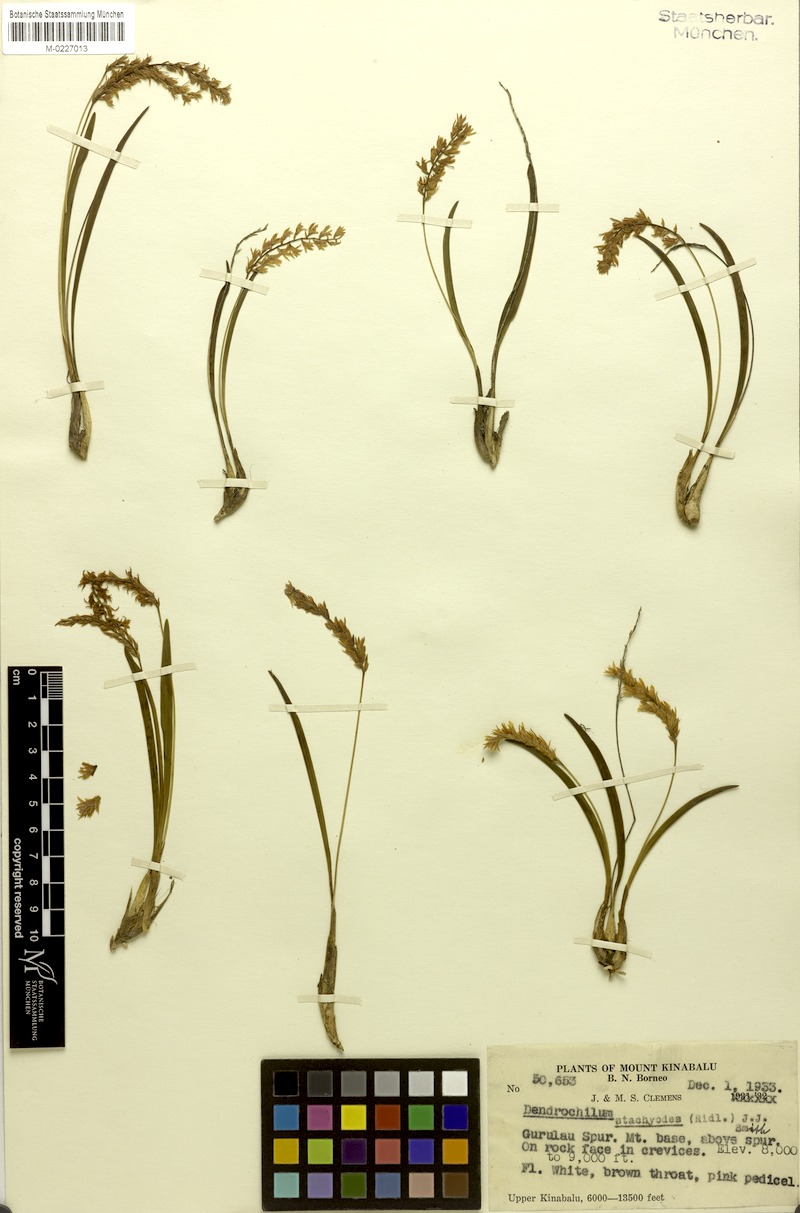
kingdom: Plantae
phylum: Tracheophyta
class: Liliopsida
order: Asparagales
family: Orchidaceae
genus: Coelogyne
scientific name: Coelogyne stachyodes
